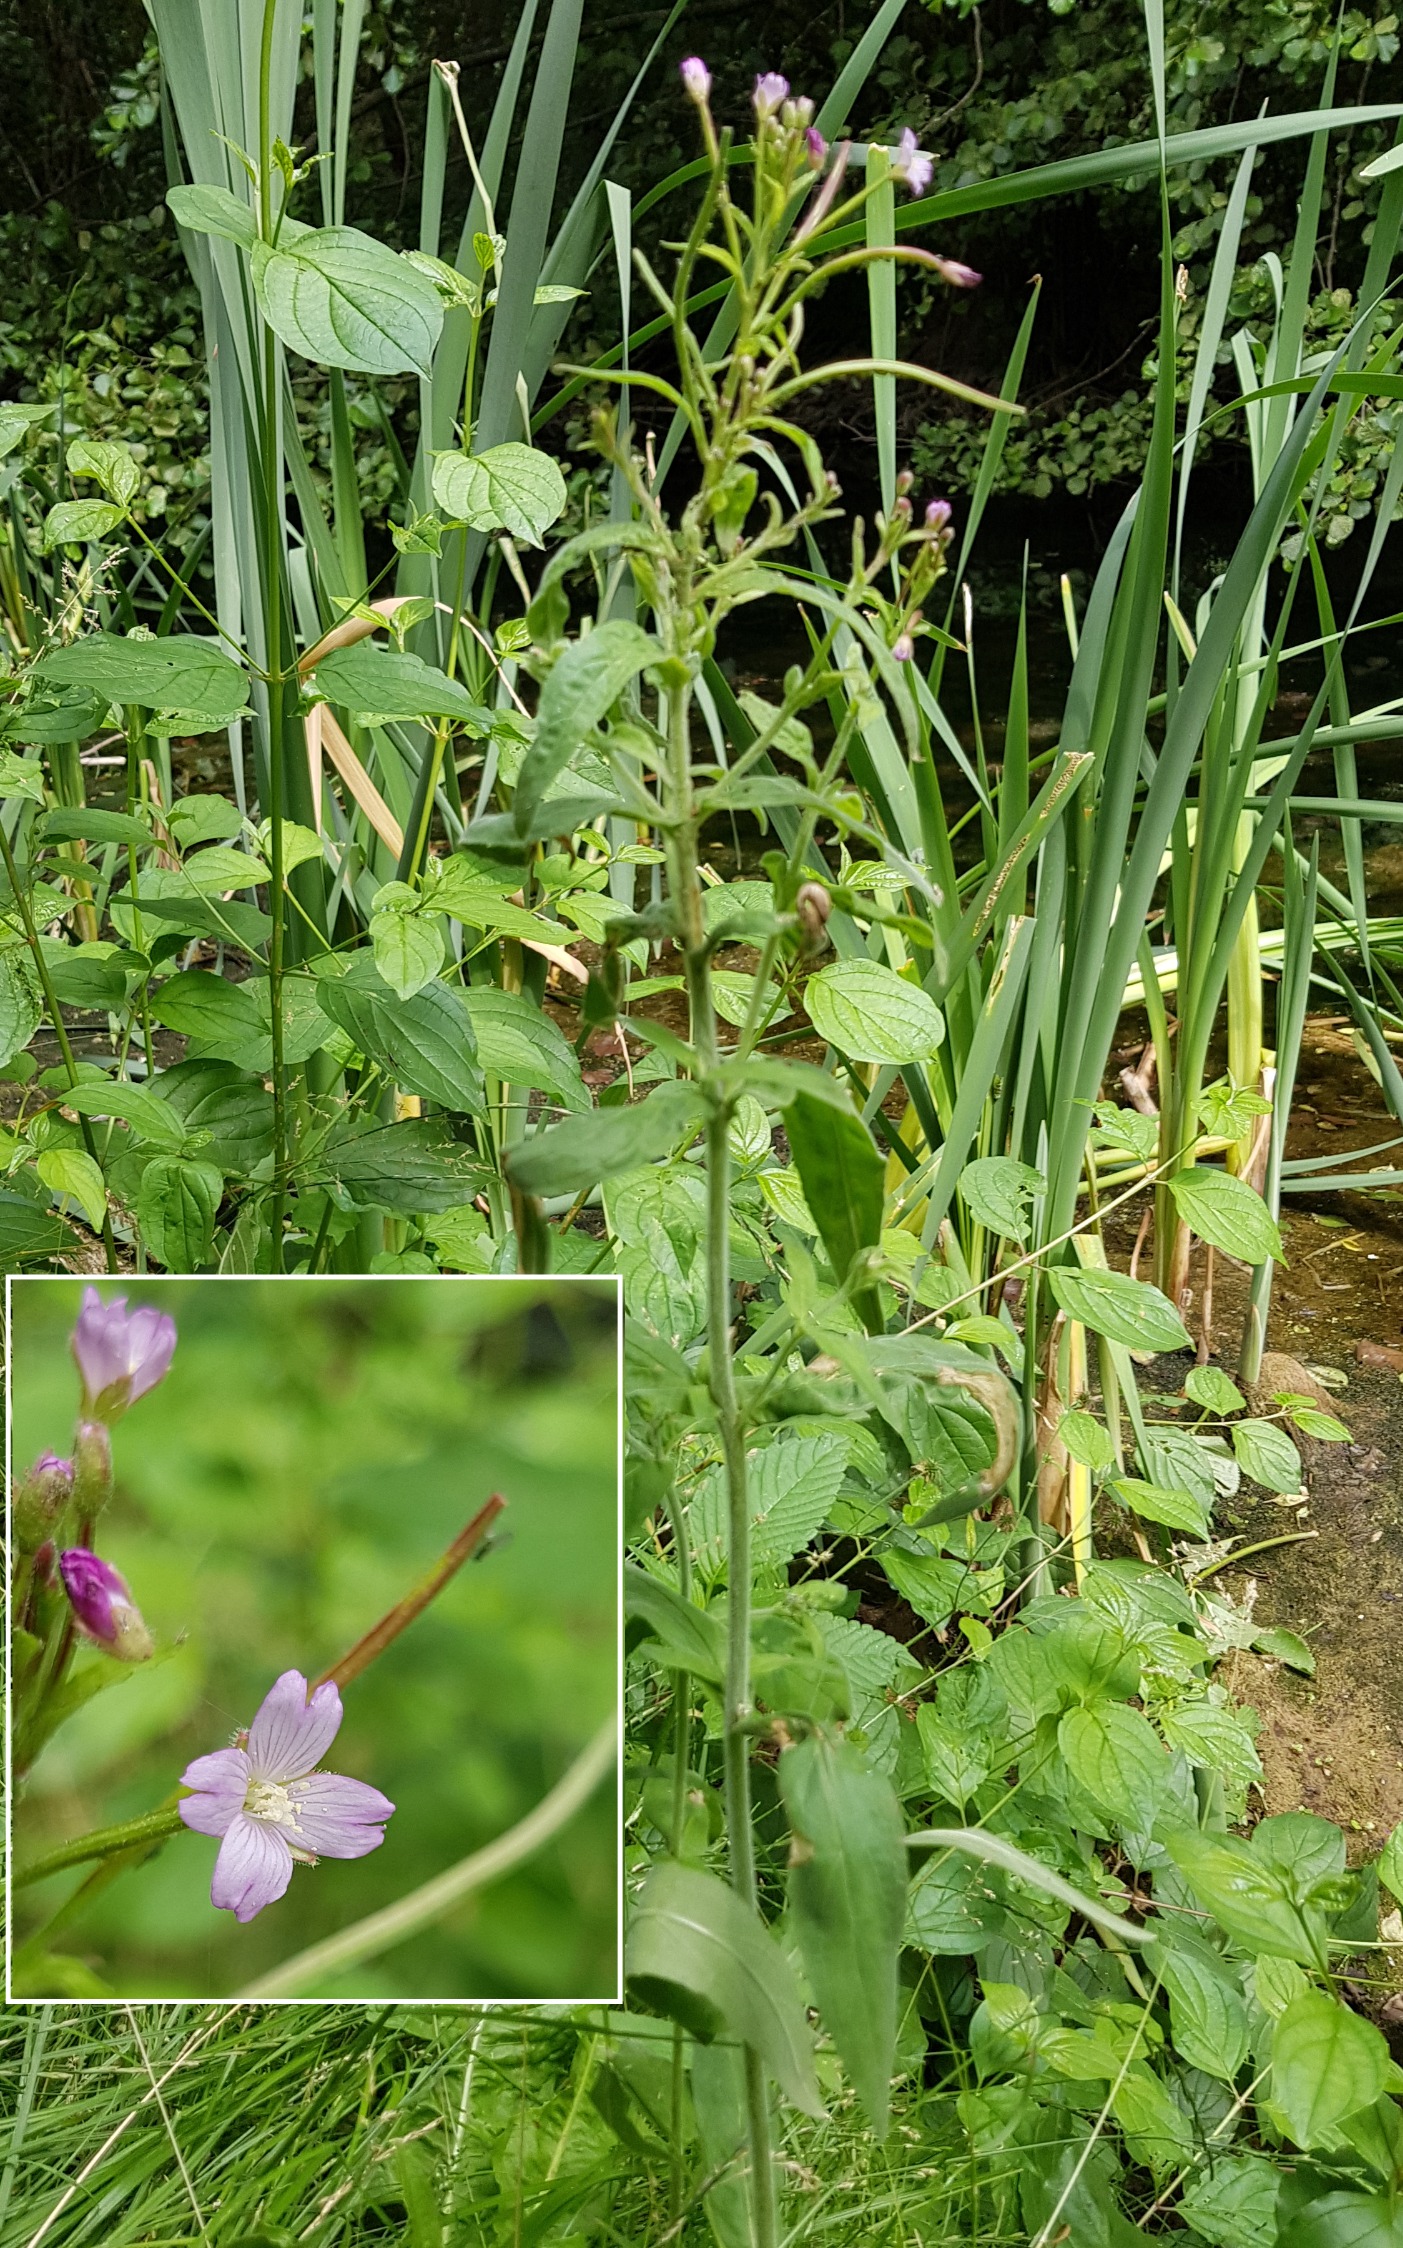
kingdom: Plantae
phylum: Tracheophyta
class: Magnoliopsida
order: Myrtales
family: Onagraceae
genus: Epilobium
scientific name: Epilobium parviflorum
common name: Dunet dueurt
